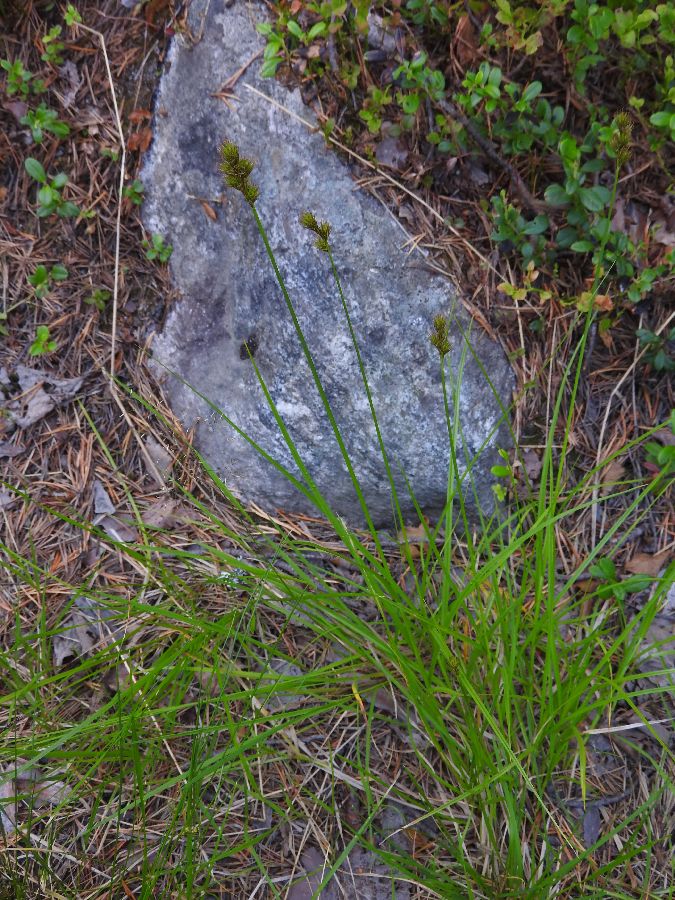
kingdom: Plantae
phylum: Tracheophyta
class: Liliopsida
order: Poales
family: Cyperaceae
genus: Carex
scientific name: Carex leporina
